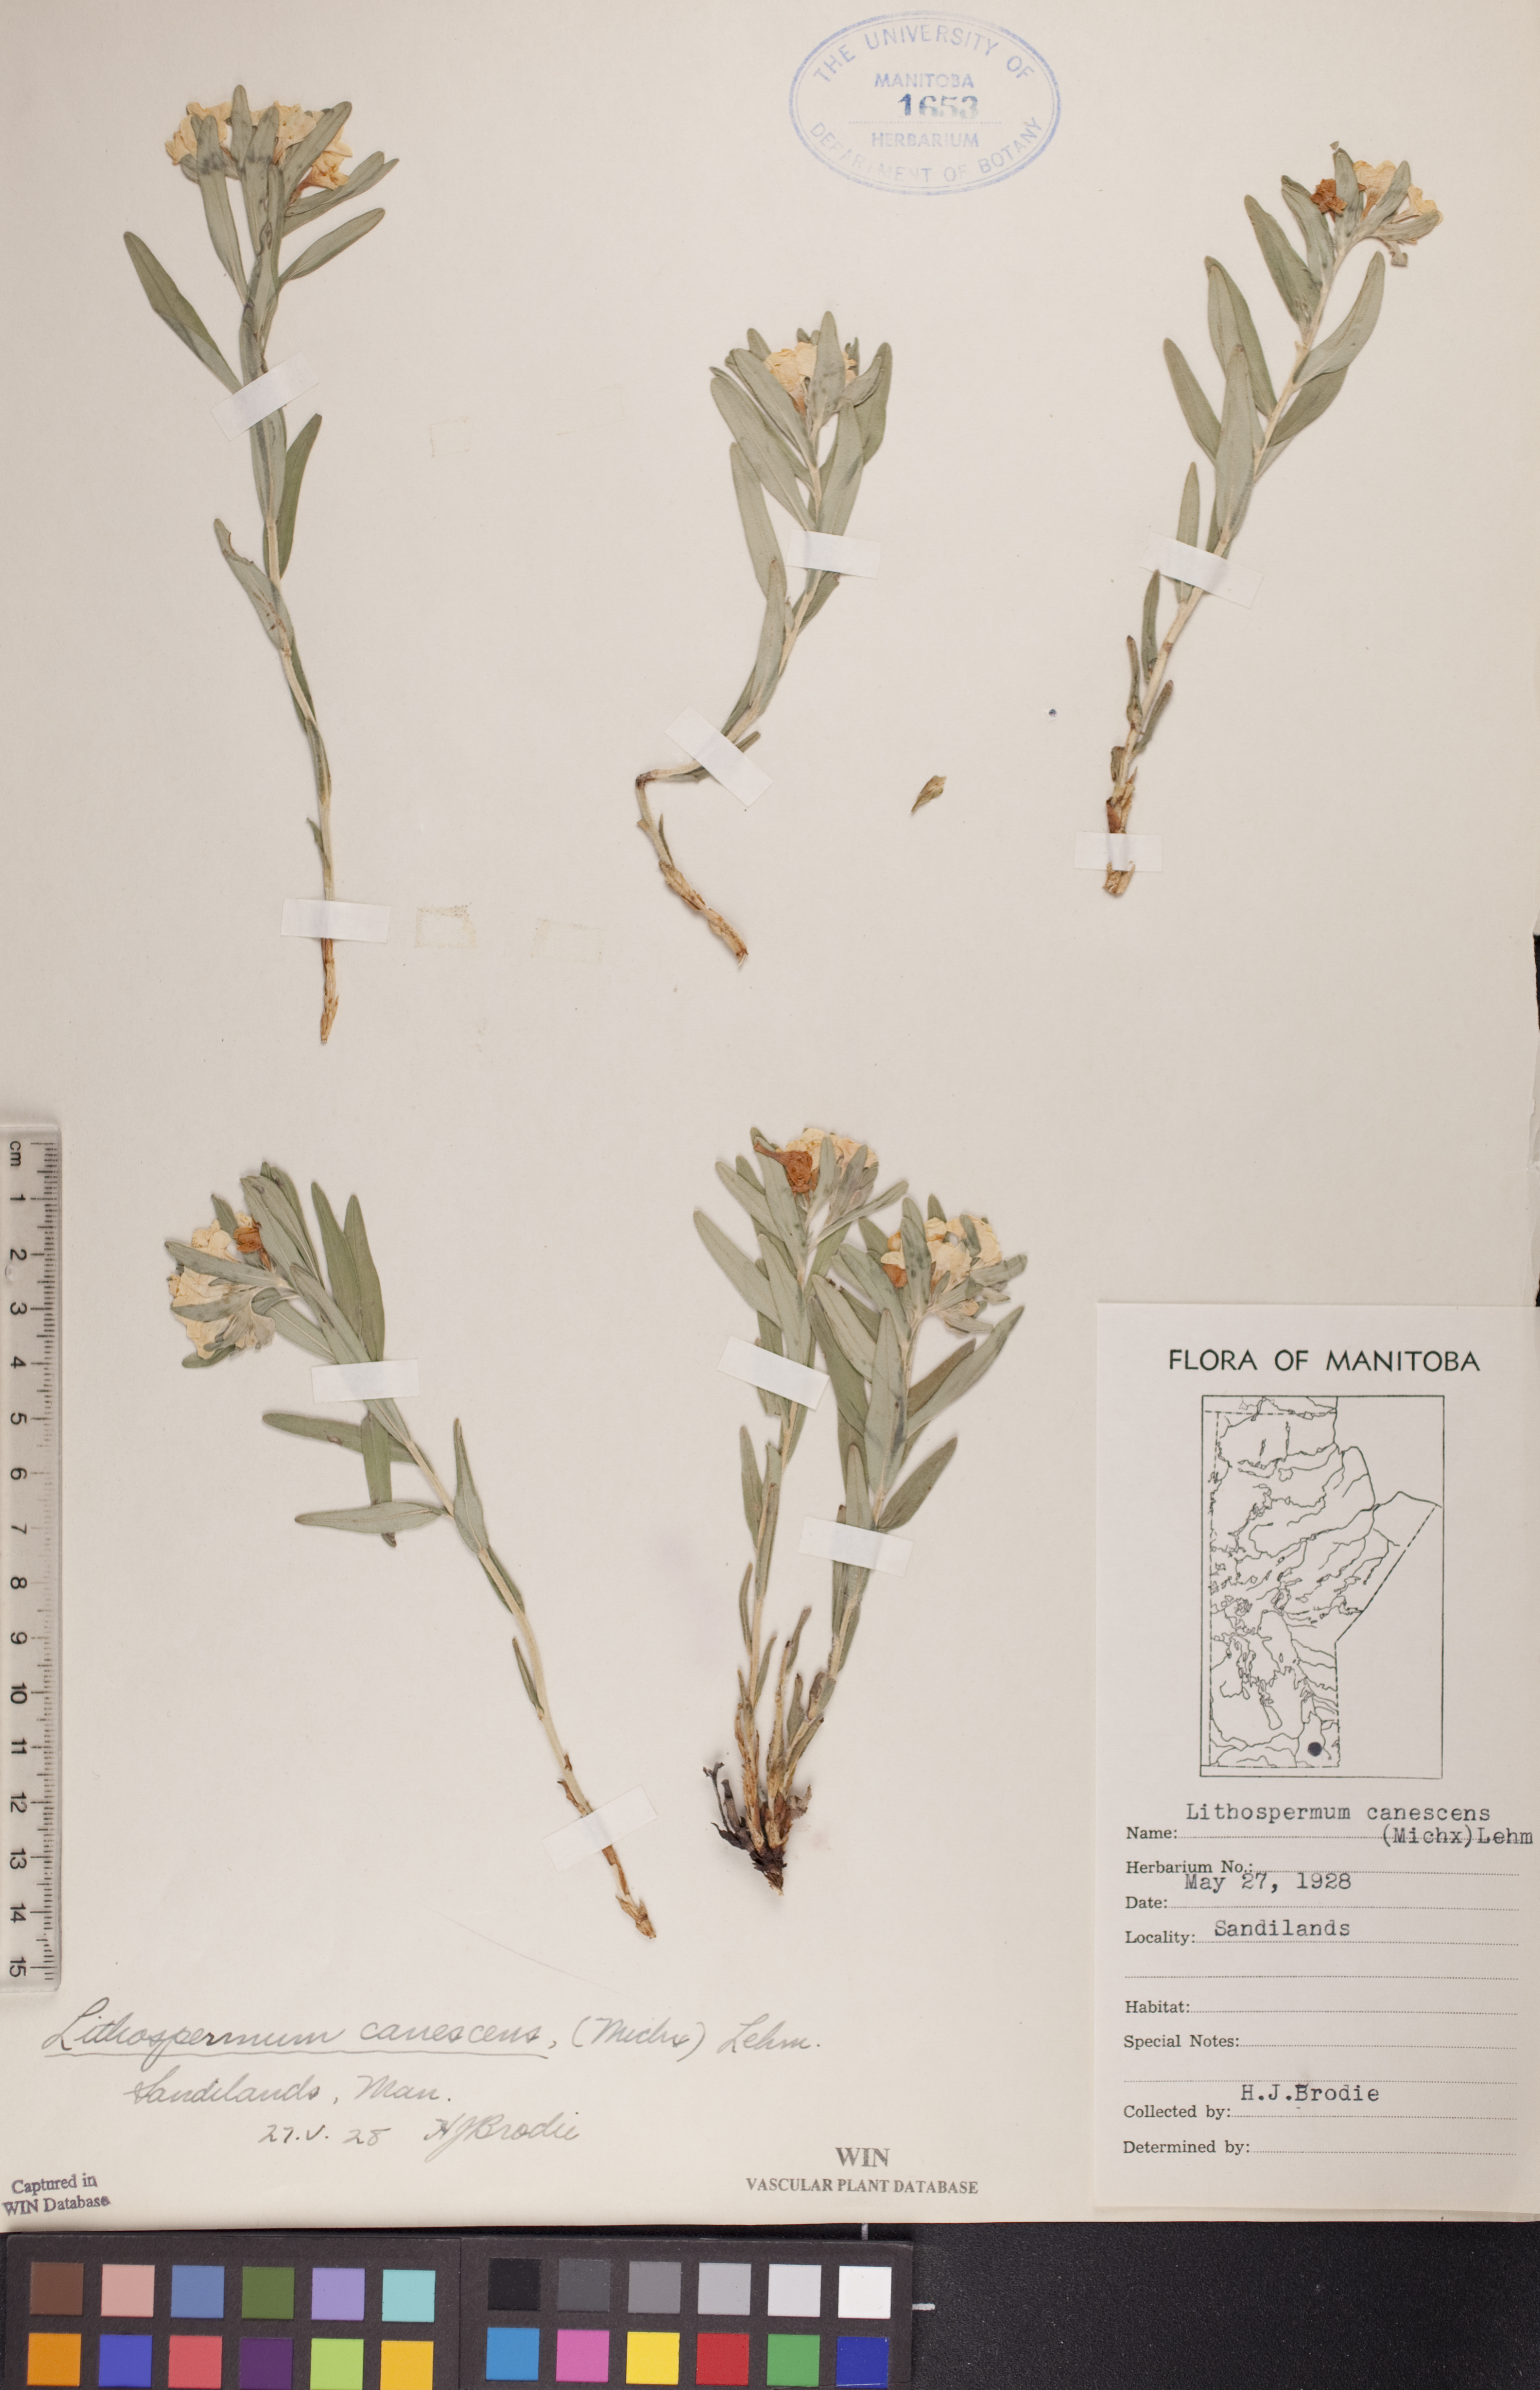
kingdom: Plantae
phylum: Tracheophyta
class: Magnoliopsida
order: Boraginales
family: Boraginaceae
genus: Lithospermum
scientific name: Lithospermum canescens
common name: Hoary puccoon
